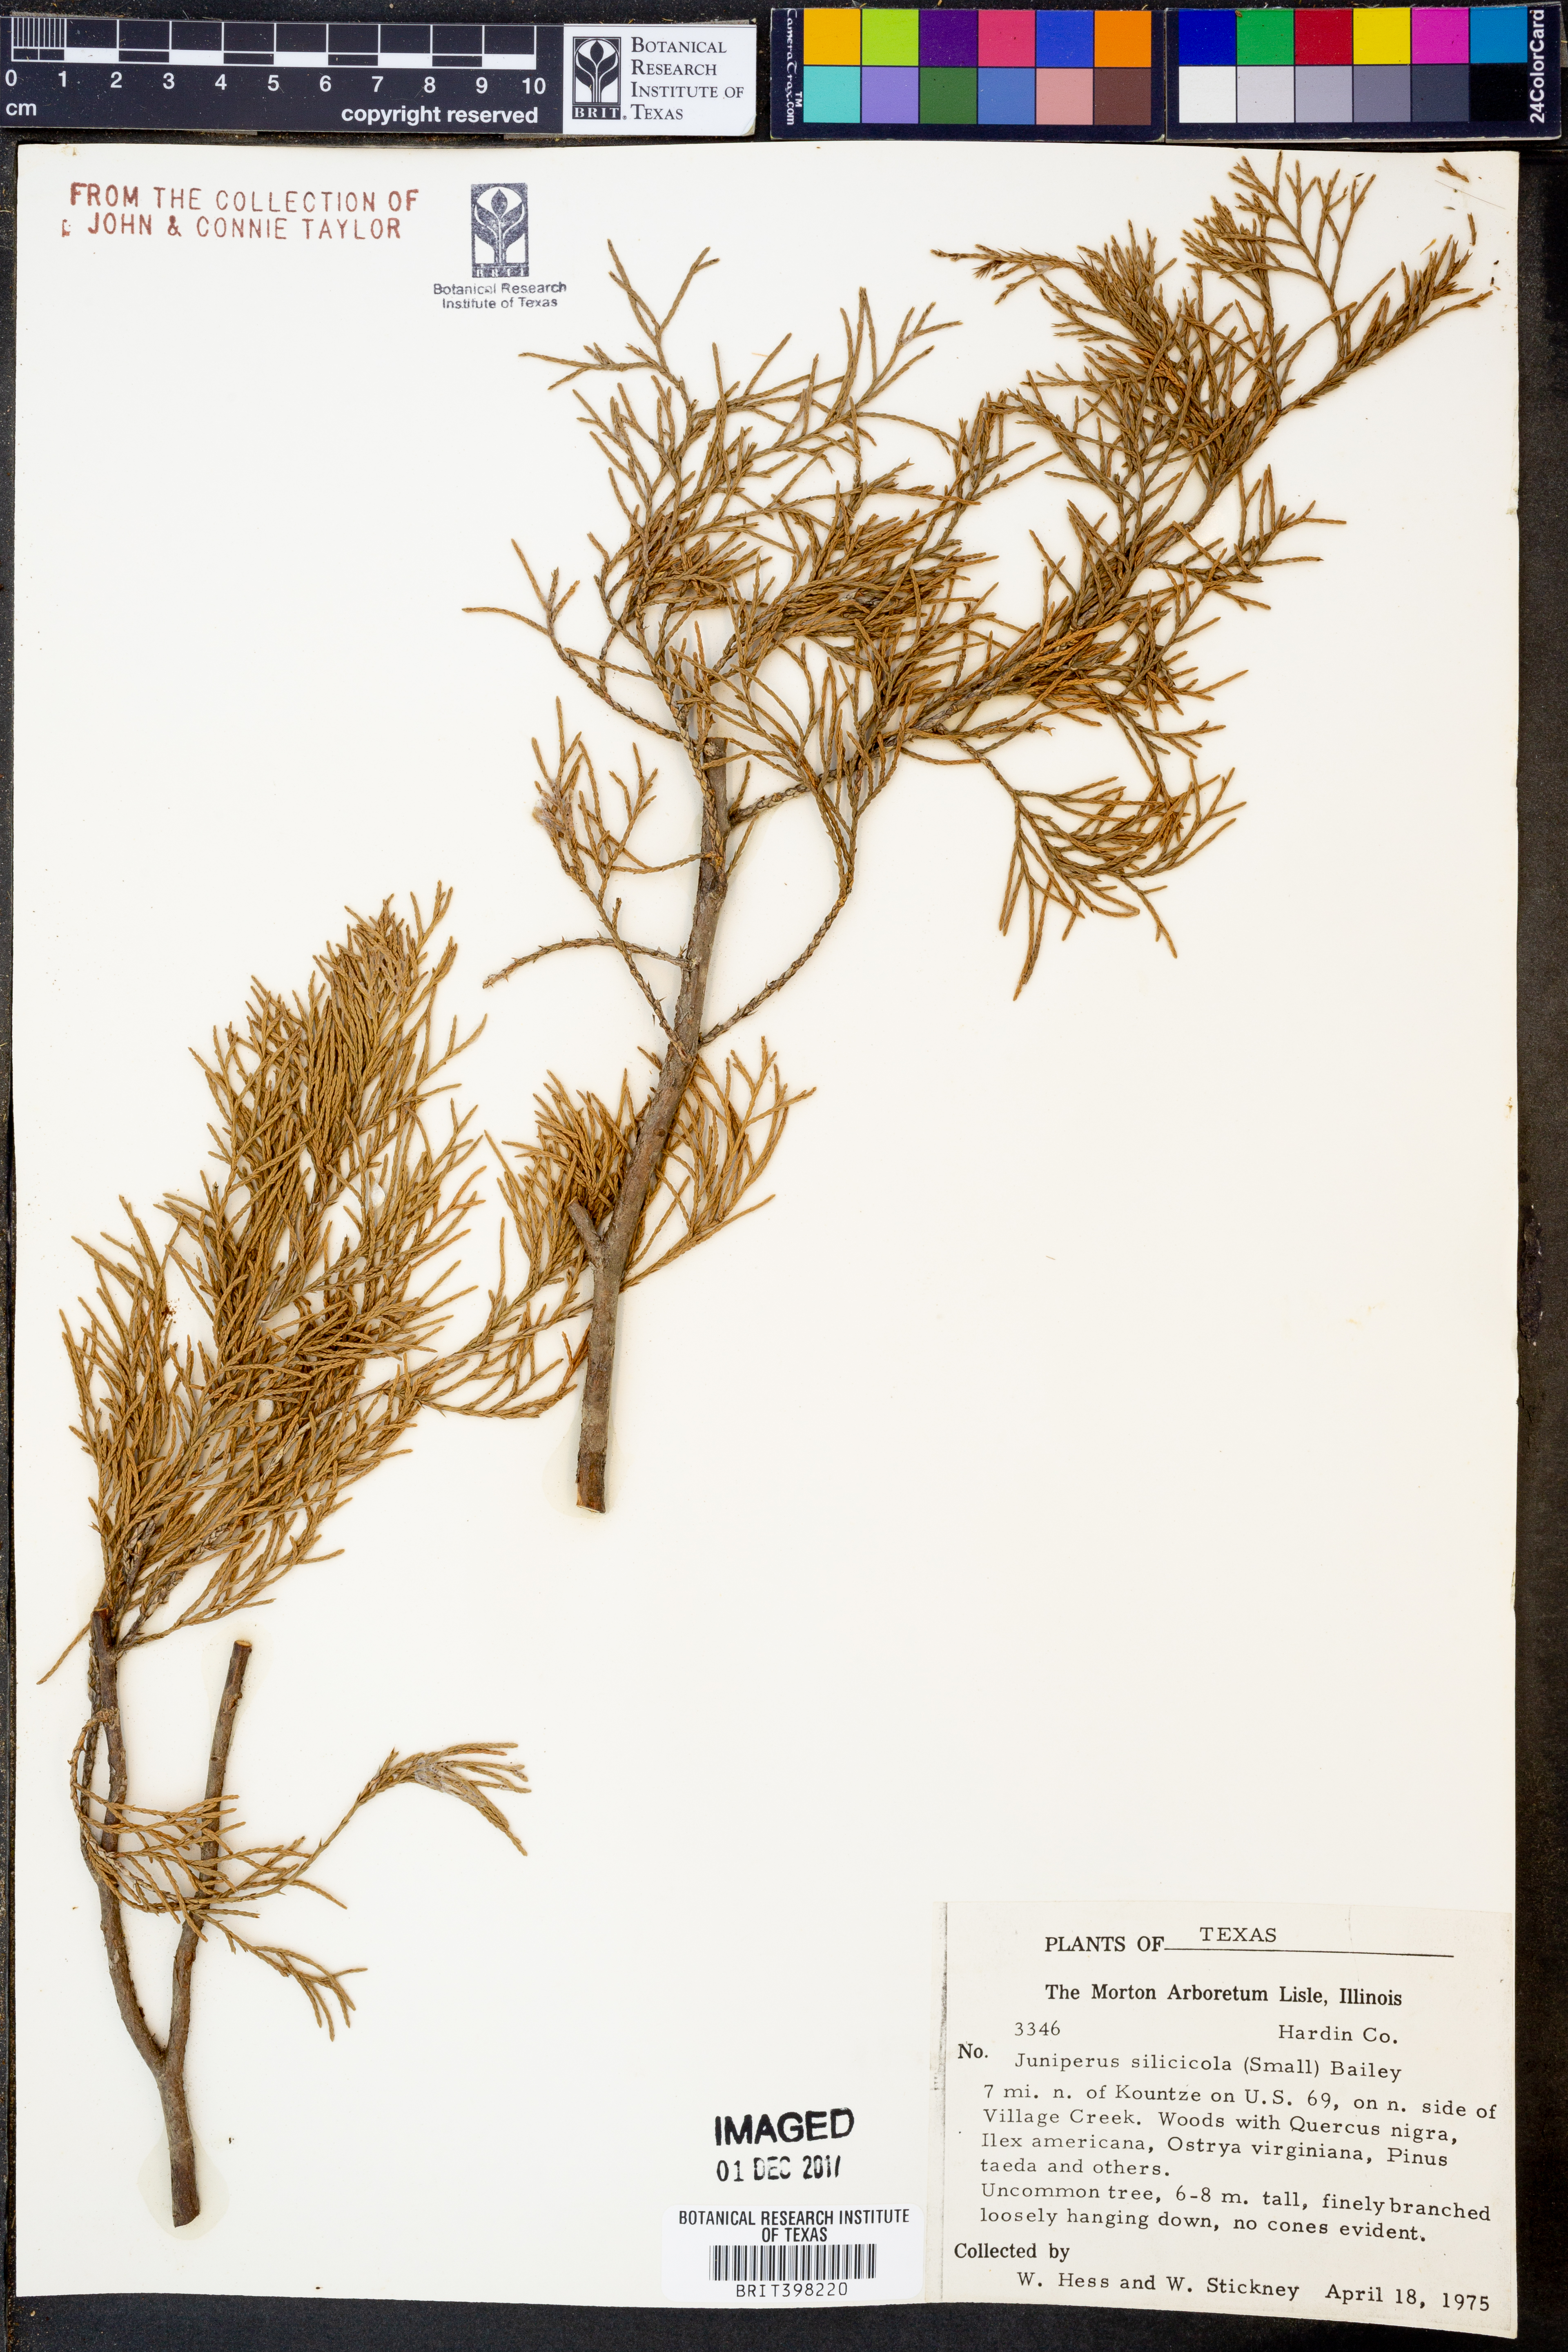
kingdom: Plantae
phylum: Tracheophyta
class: Pinopsida
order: Pinales
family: Cupressaceae
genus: Juniperus
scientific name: Juniperus virginiana
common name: Red juniper
